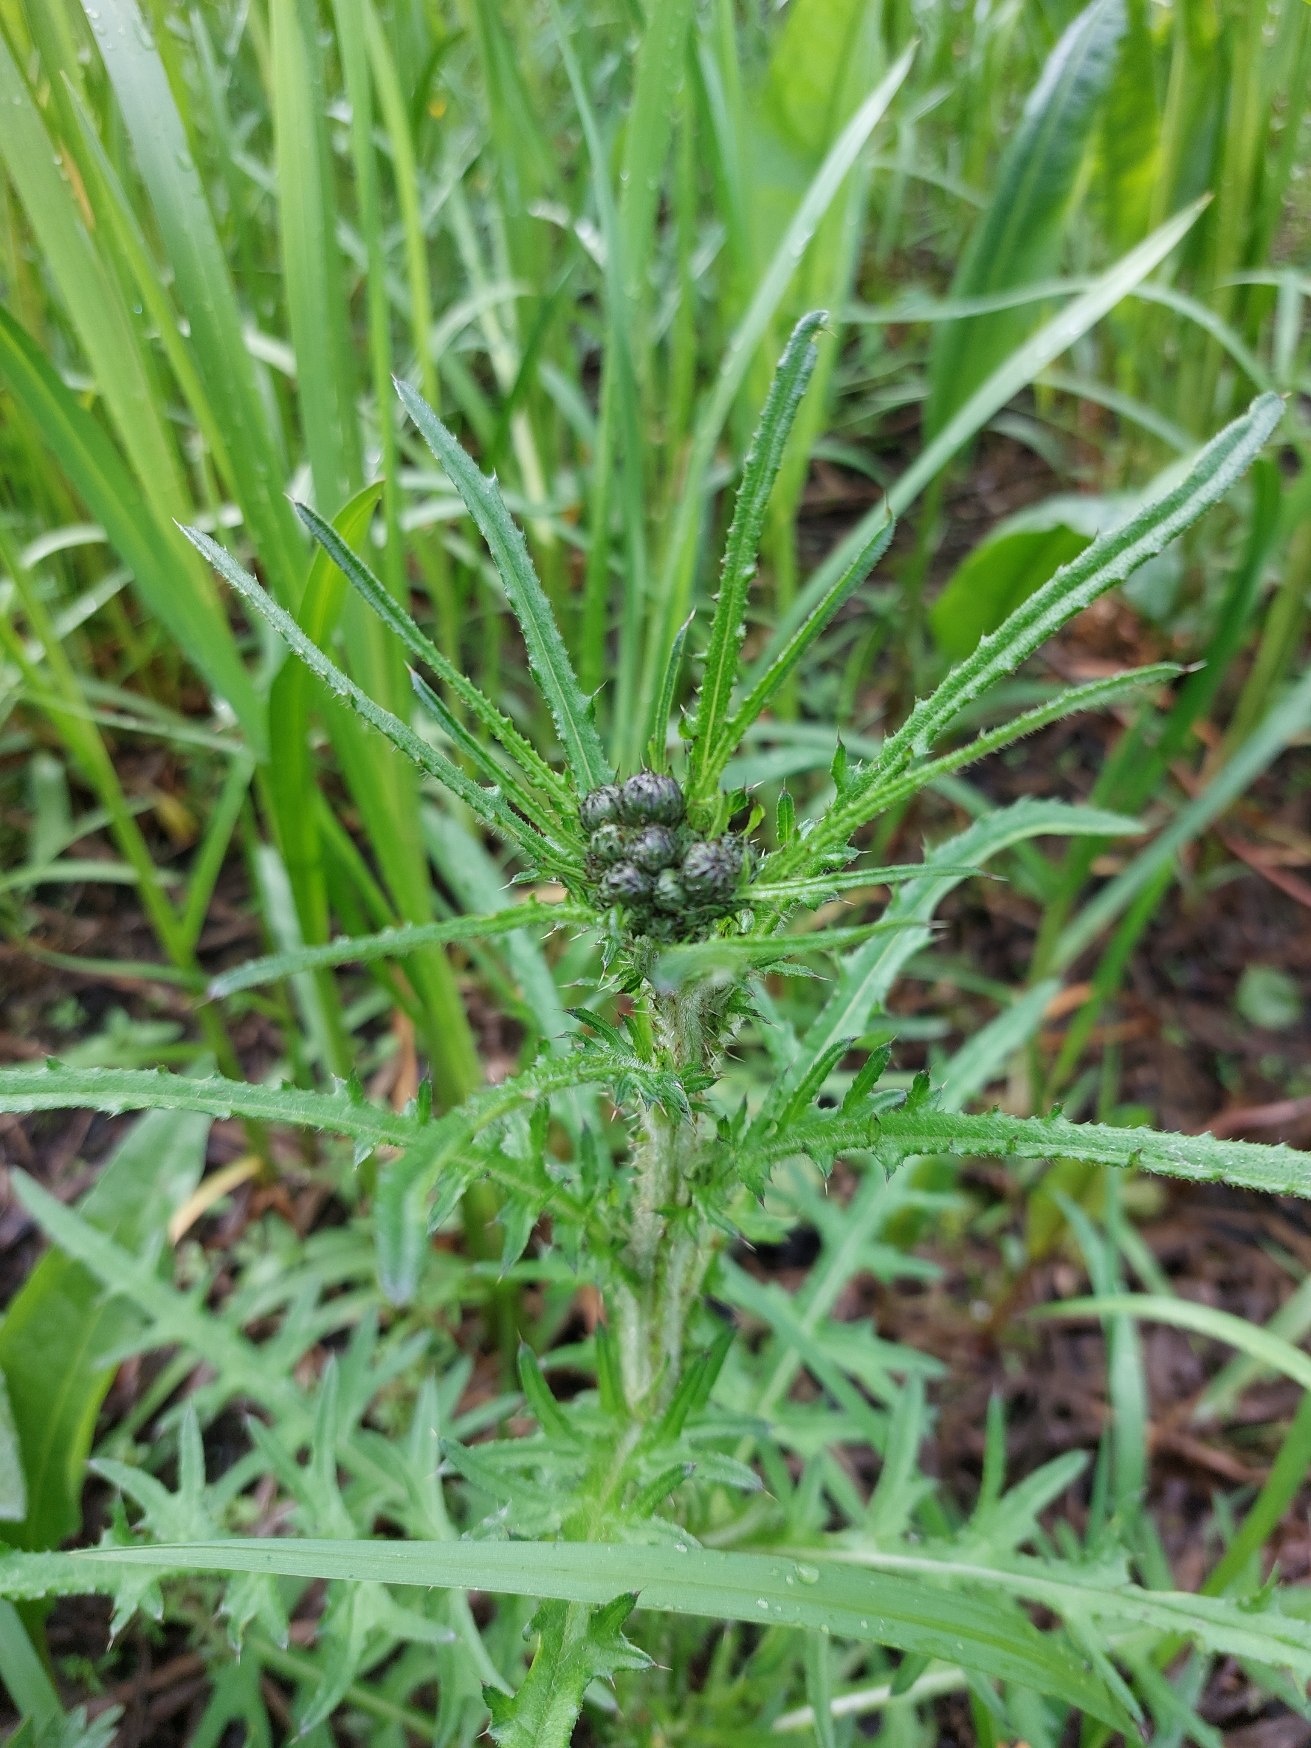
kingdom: Plantae
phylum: Tracheophyta
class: Magnoliopsida
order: Asterales
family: Asteraceae
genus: Cirsium
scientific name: Cirsium palustre
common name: Kær-tidsel
